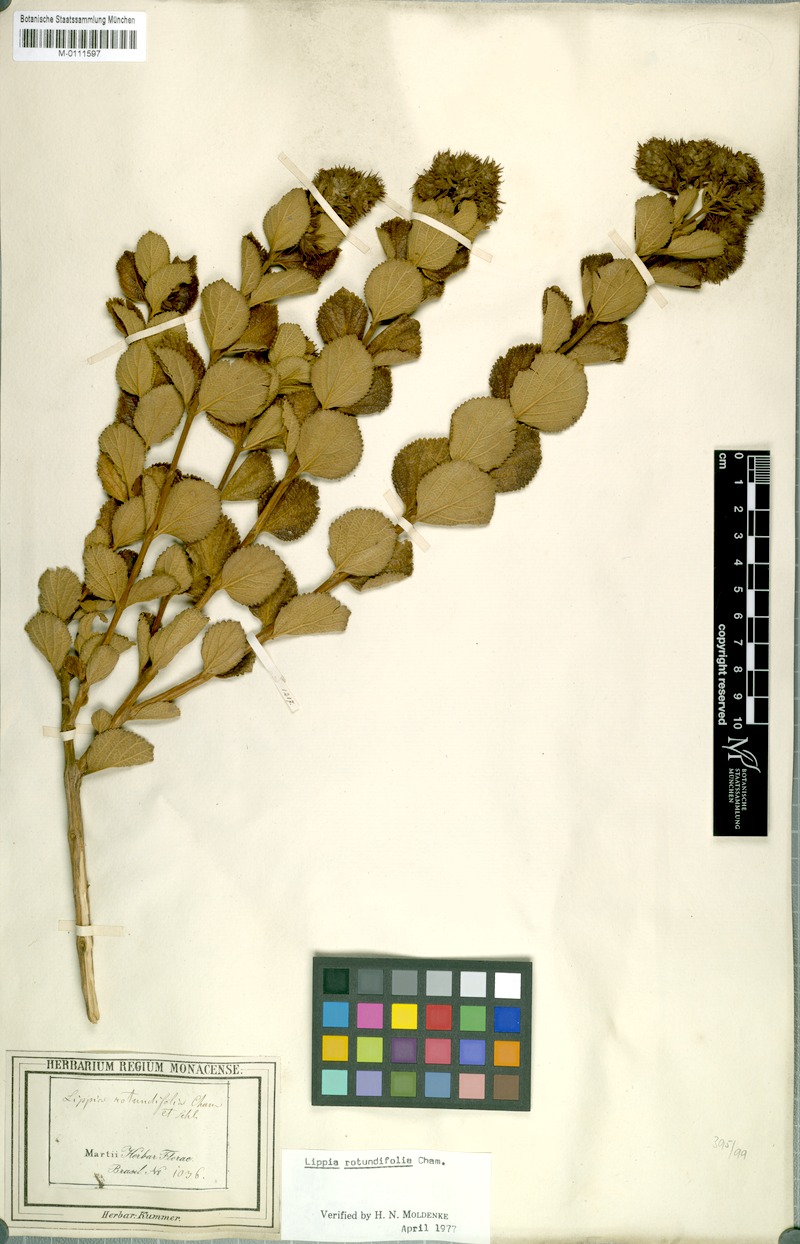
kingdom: Plantae
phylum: Tracheophyta
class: Magnoliopsida
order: Lamiales
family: Verbenaceae
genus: Lippia
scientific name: Lippia rotundifolia
